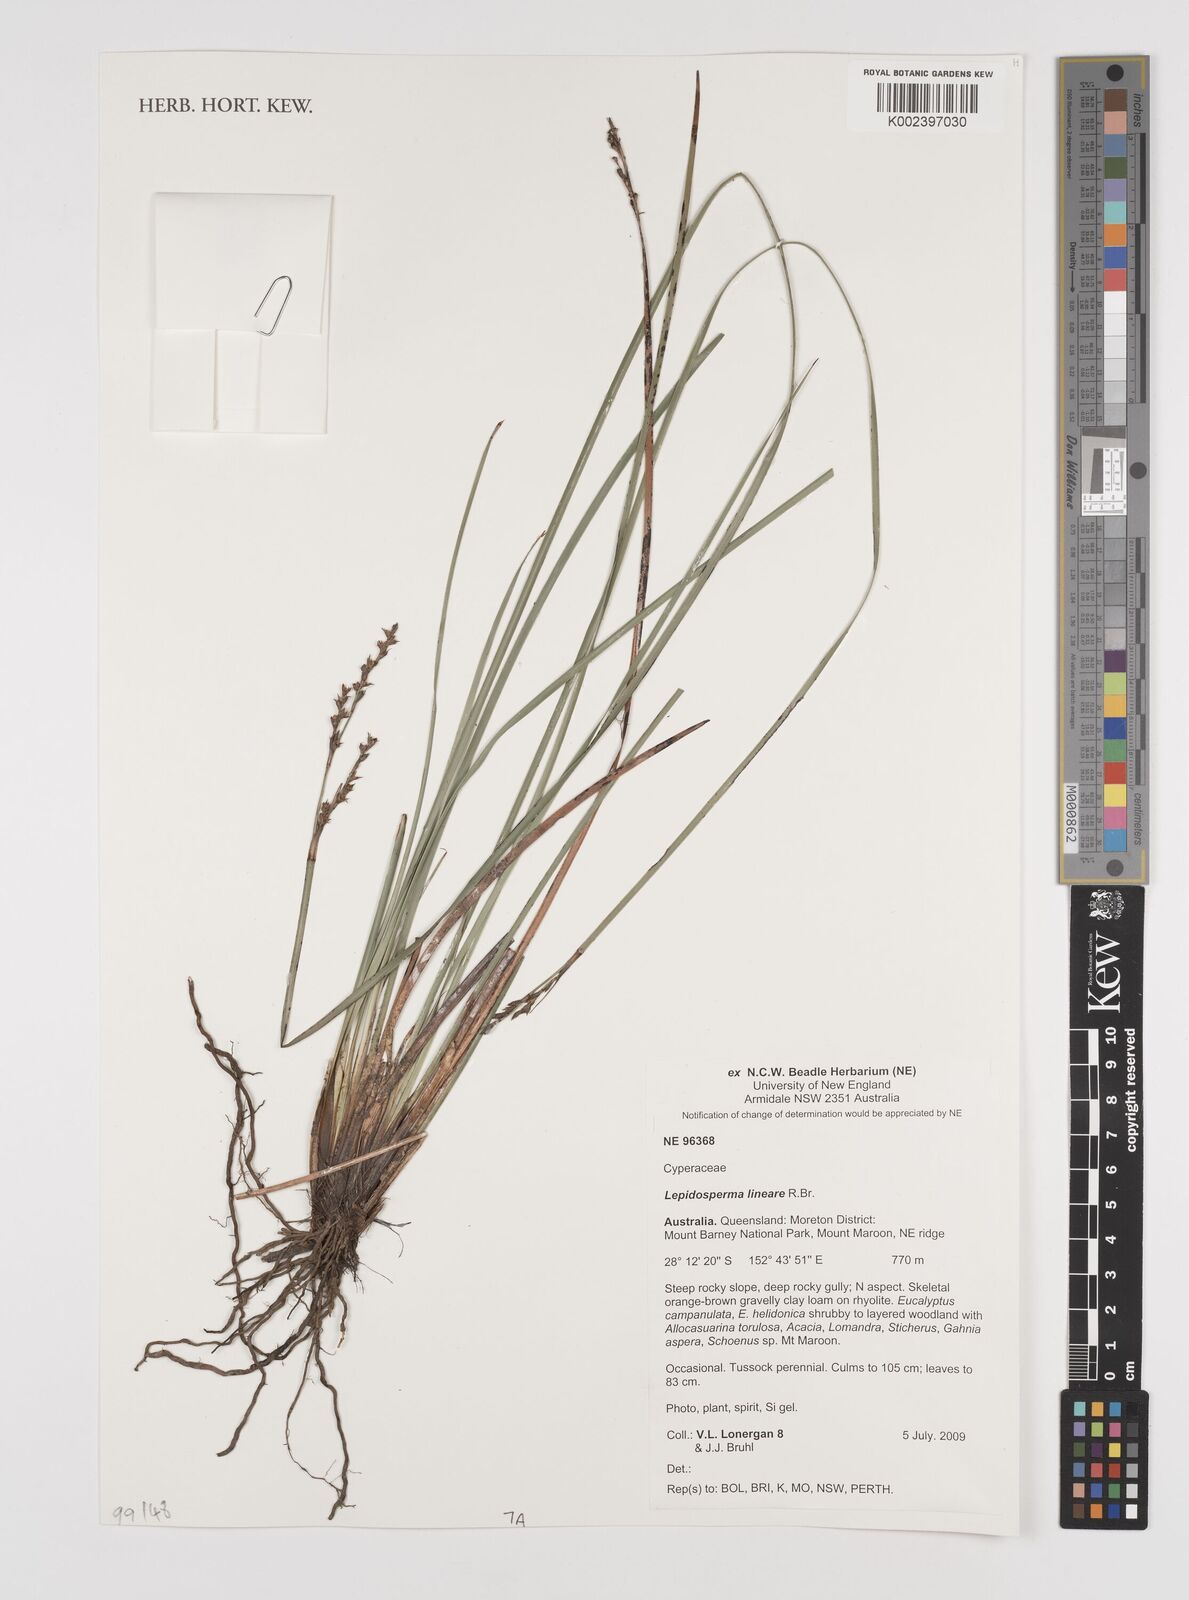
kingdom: Plantae
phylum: Tracheophyta
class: Liliopsida
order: Poales
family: Cyperaceae
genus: Lepidosperma
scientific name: Lepidosperma lineare
